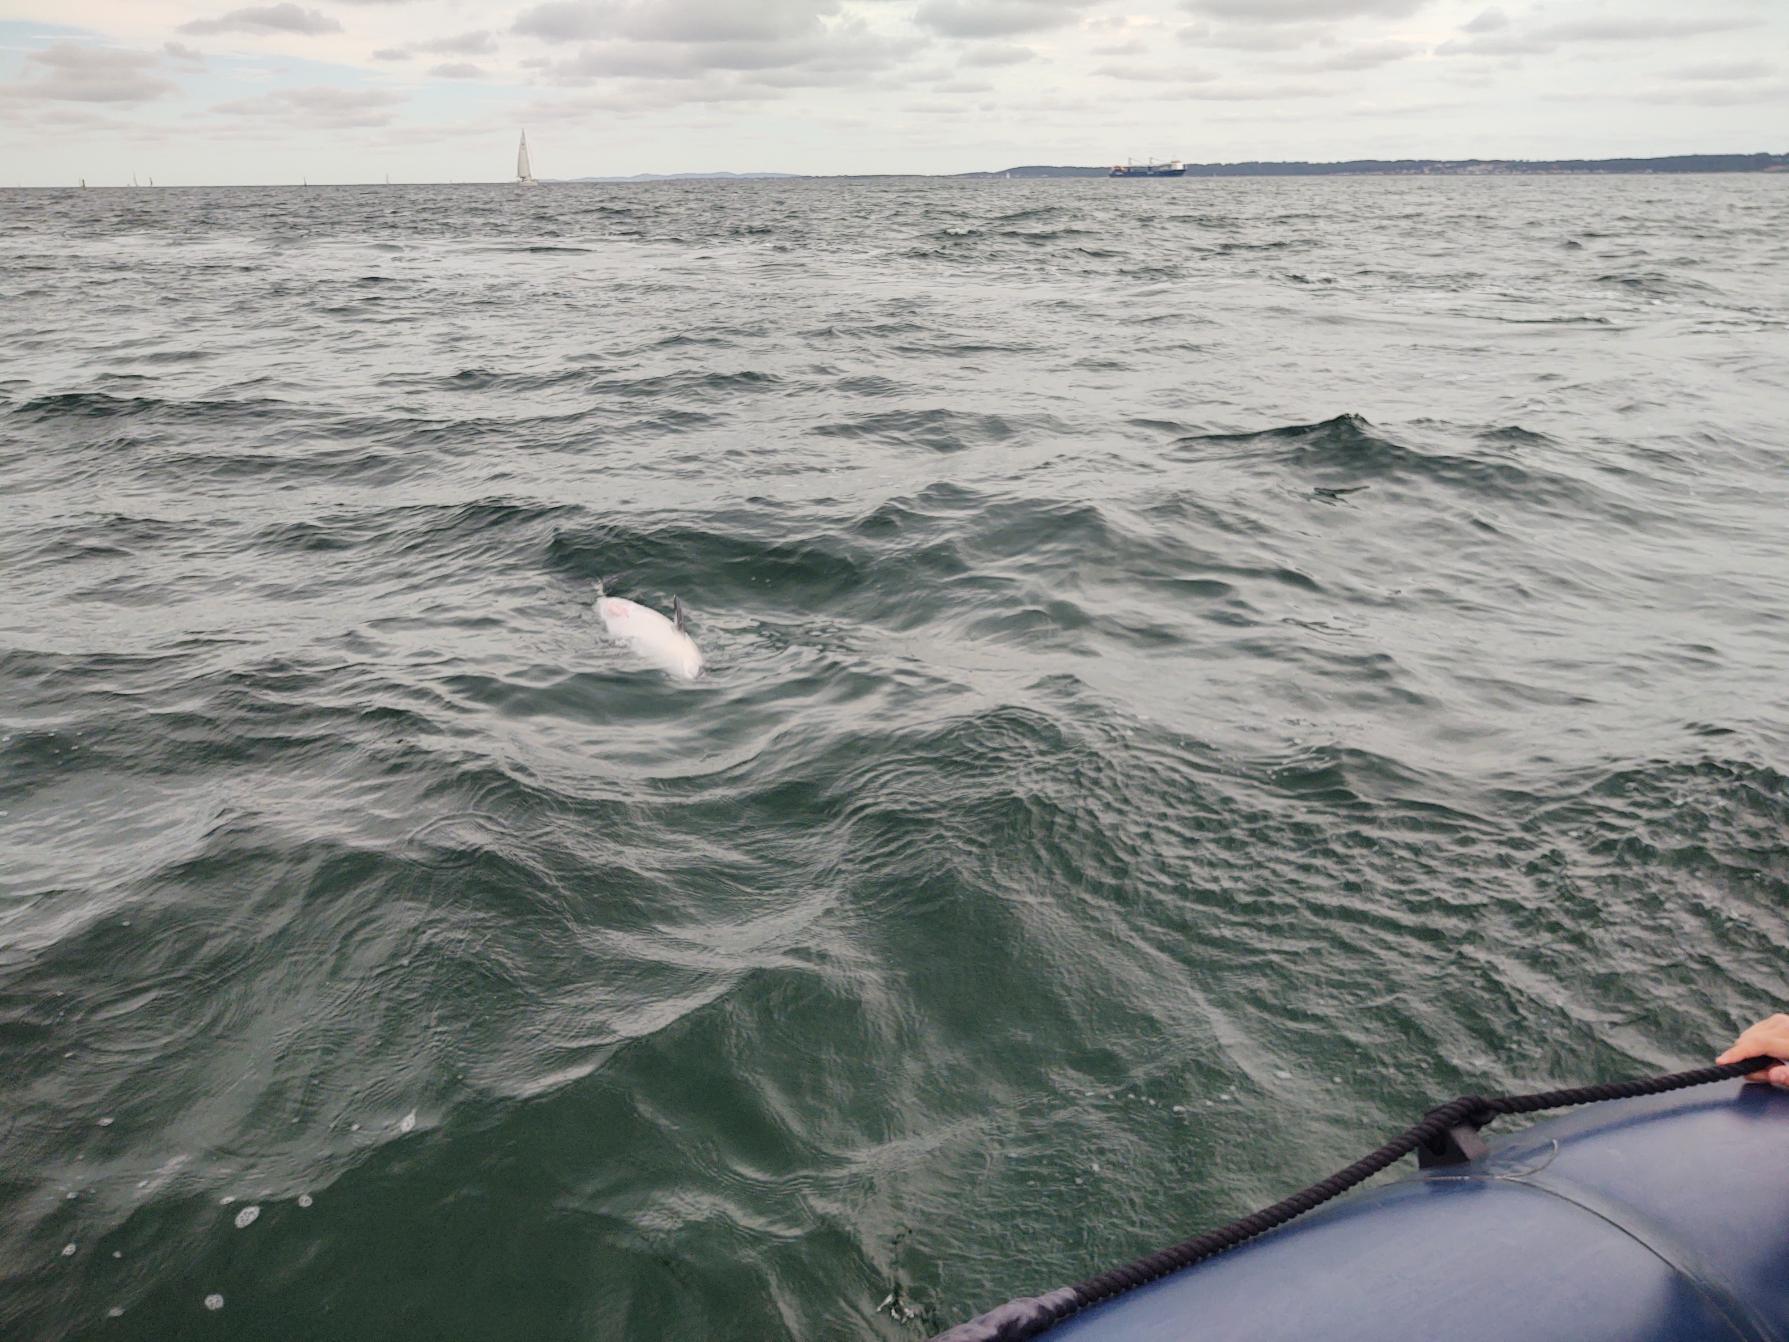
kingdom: Animalia
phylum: Chordata
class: Mammalia
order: Cetacea
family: Phocoenidae
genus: Phocoena
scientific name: Phocoena phocoena
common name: Marsvin
